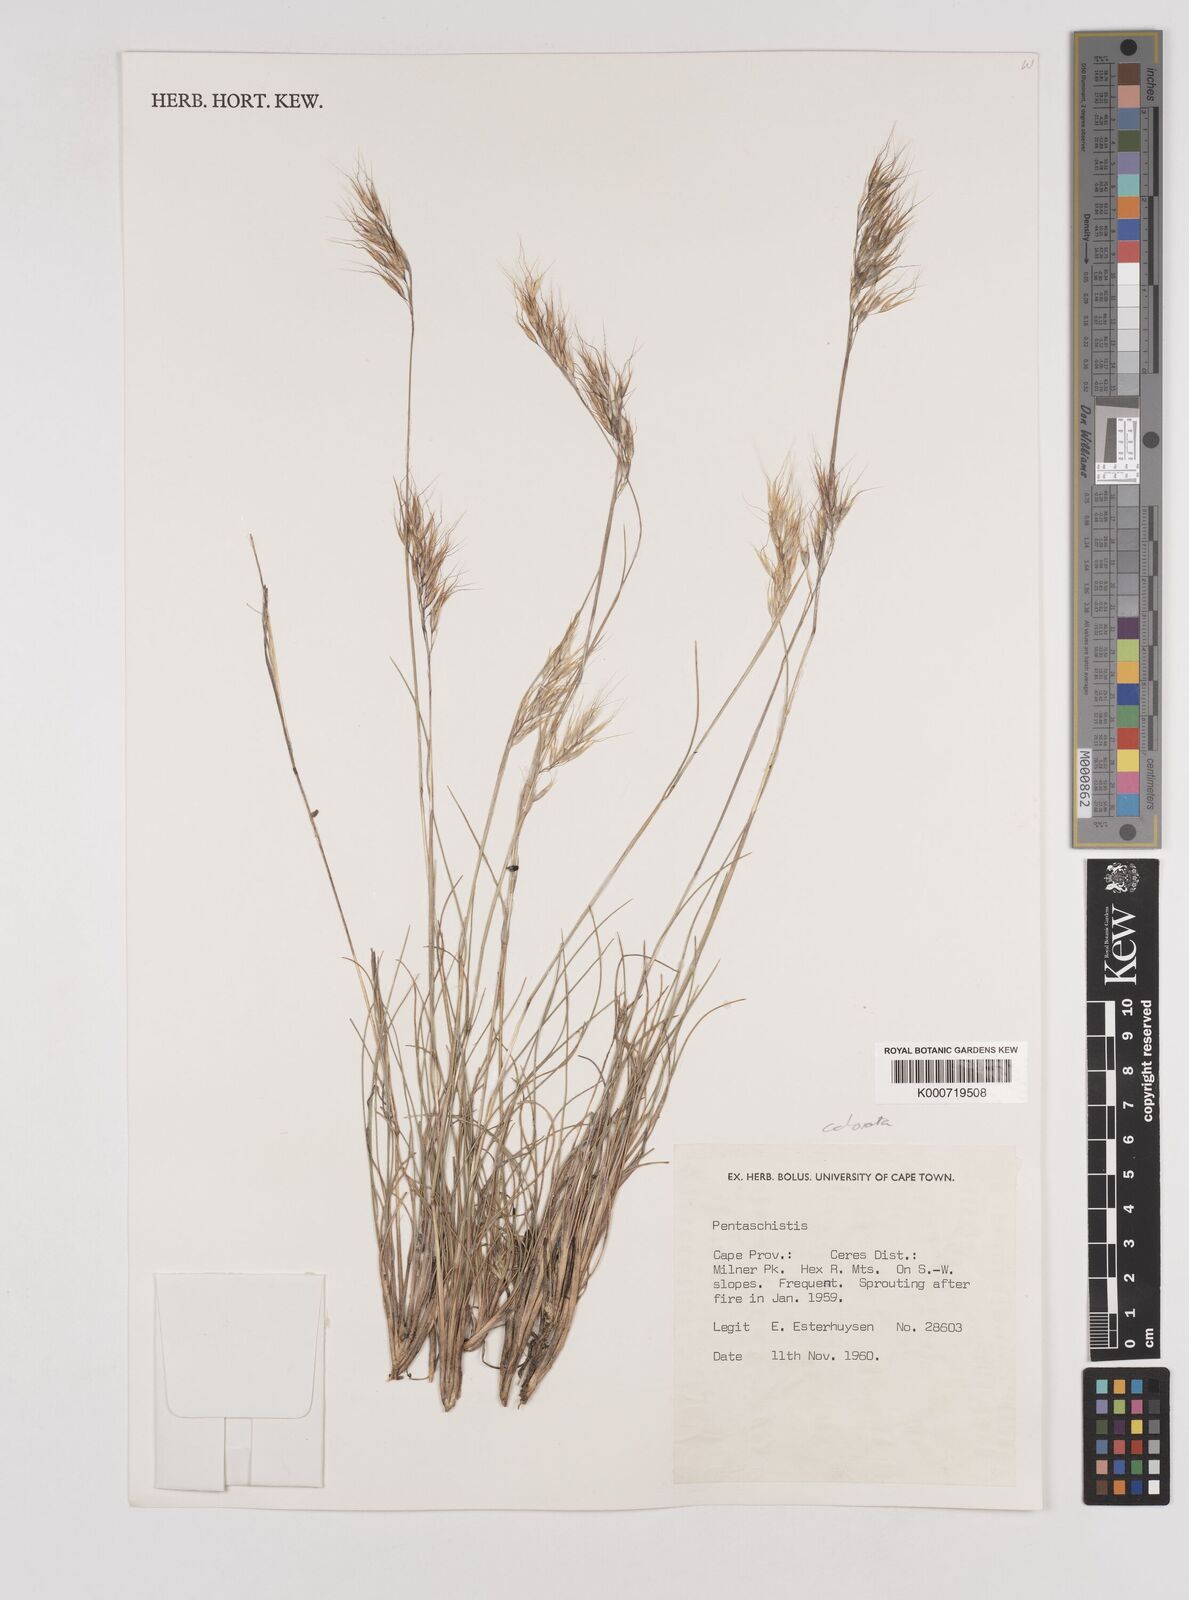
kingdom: Plantae
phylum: Tracheophyta
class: Liliopsida
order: Poales
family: Poaceae
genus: Pentameris
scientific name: Pentameris colorata
